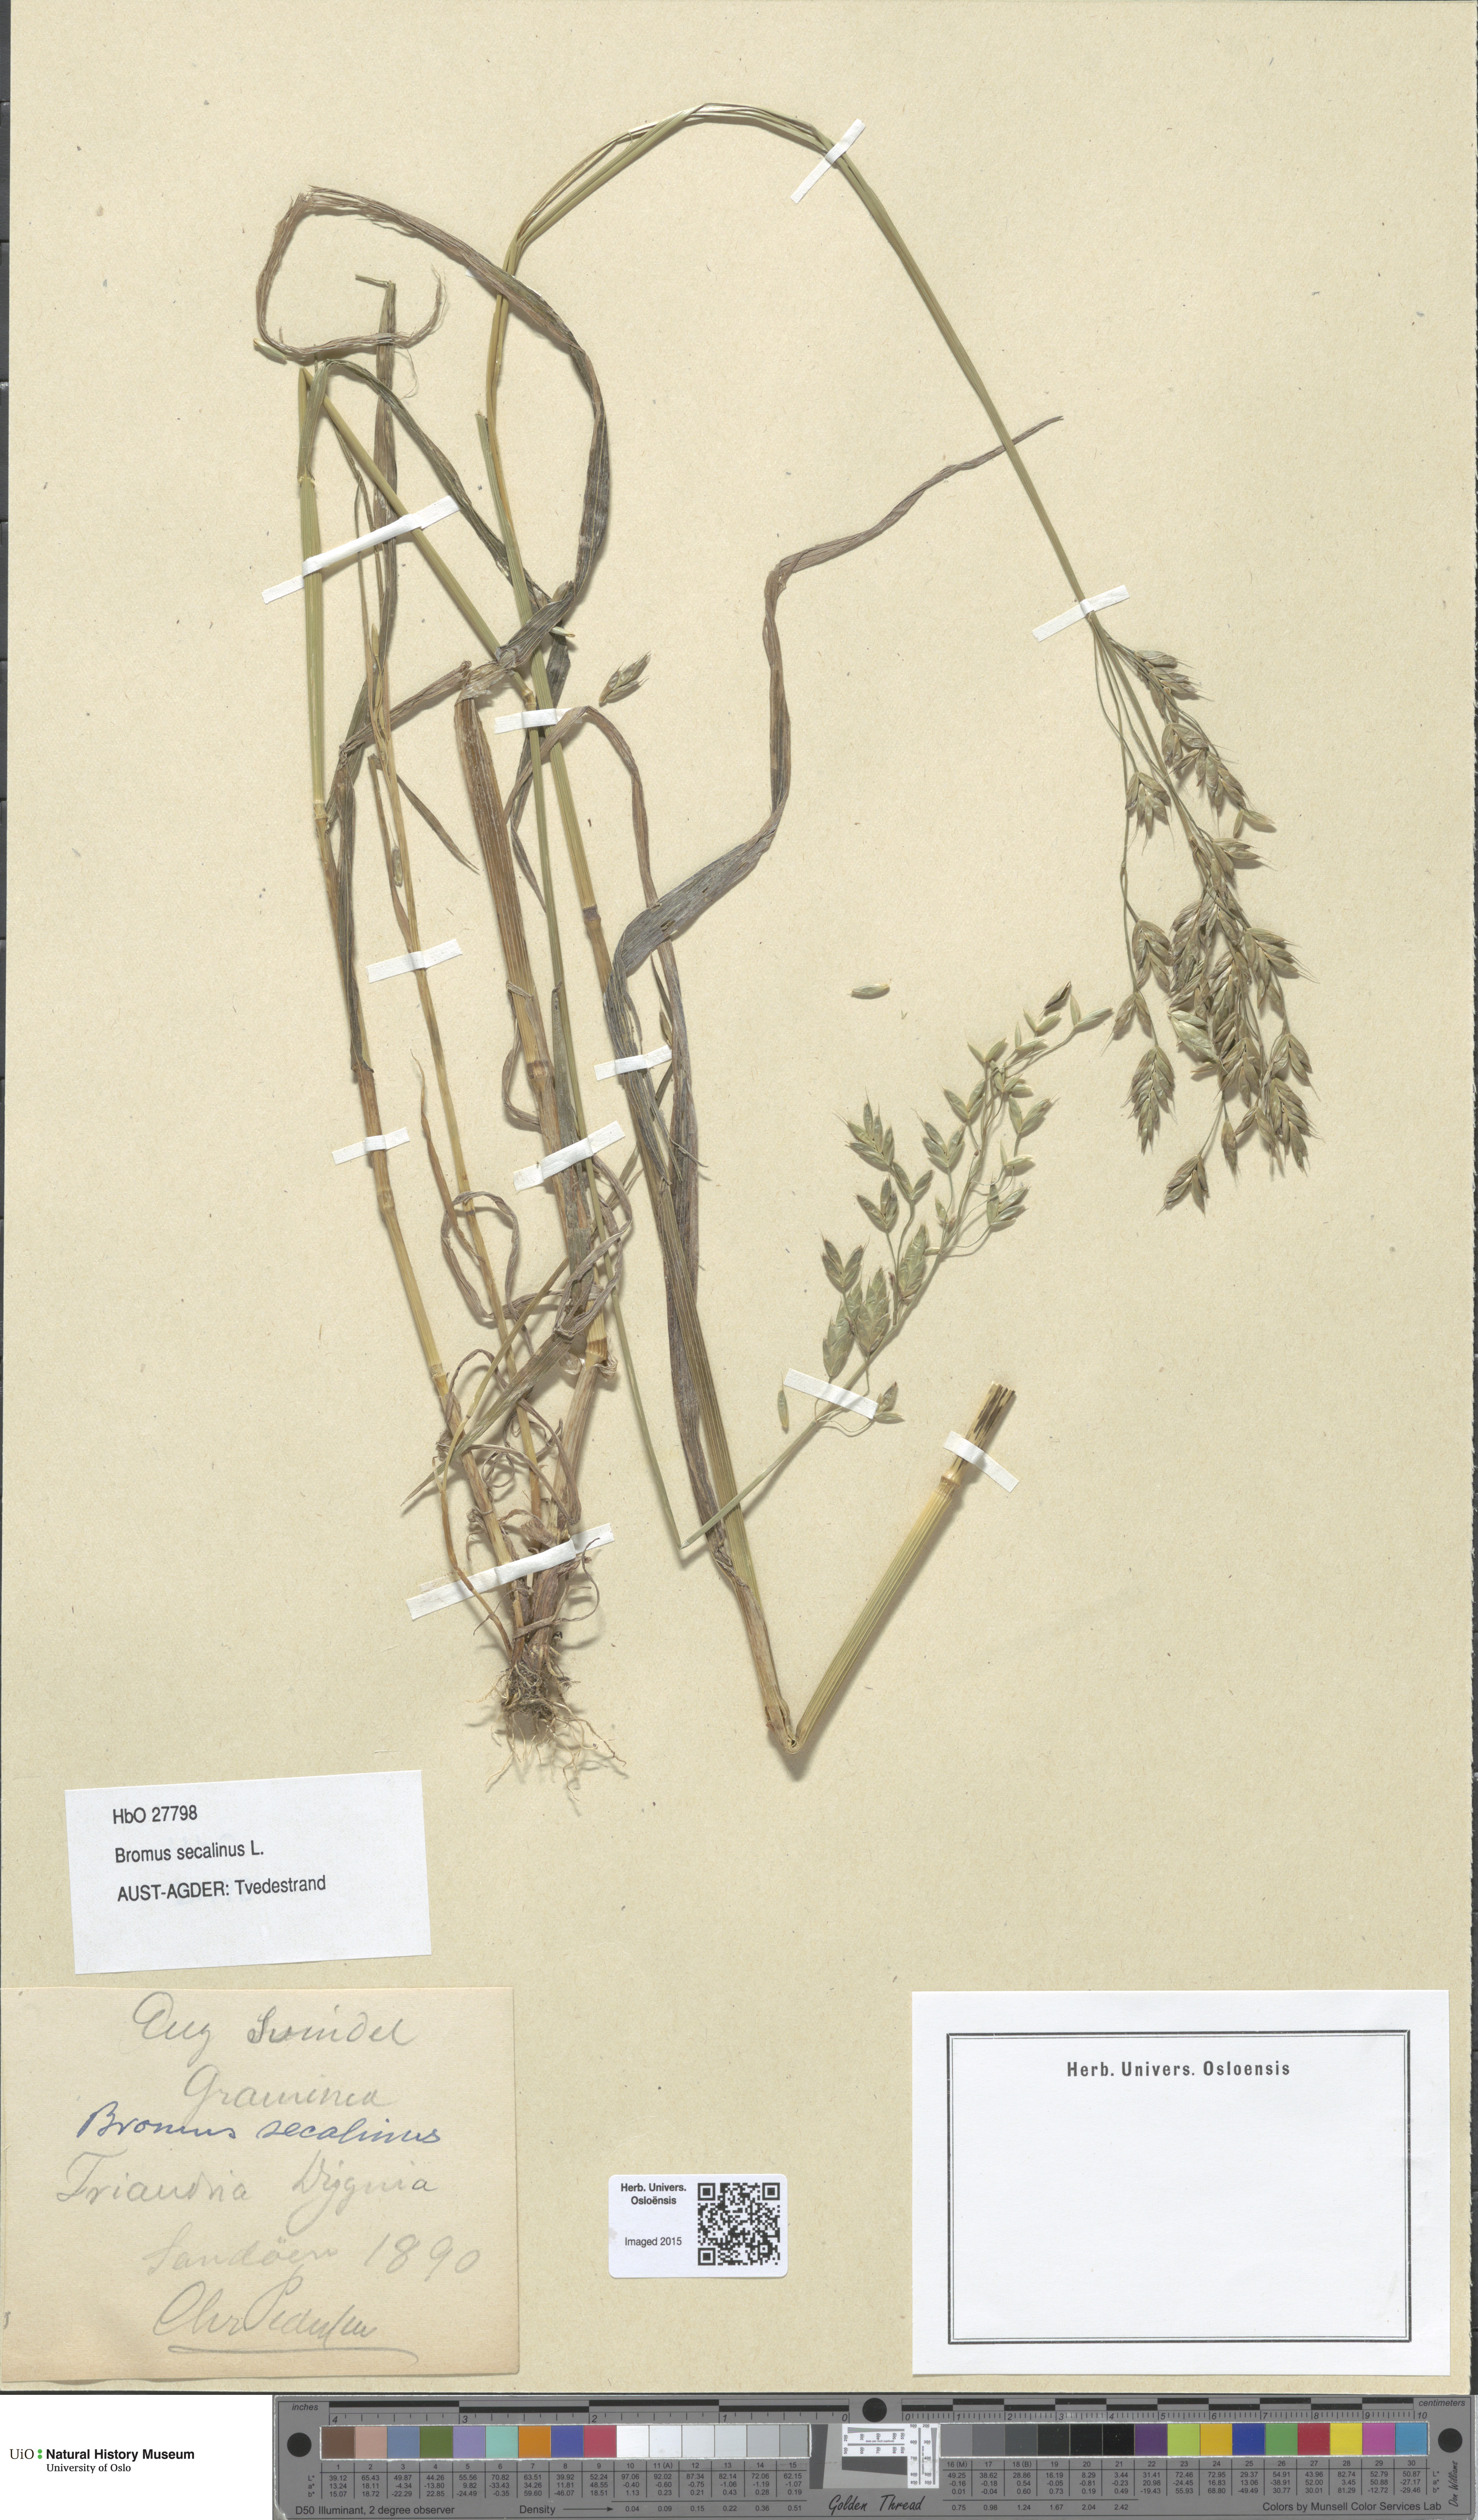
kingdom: Plantae
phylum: Tracheophyta
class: Liliopsida
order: Poales
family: Poaceae
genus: Bromus
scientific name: Bromus secalinus
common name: Rye brome
